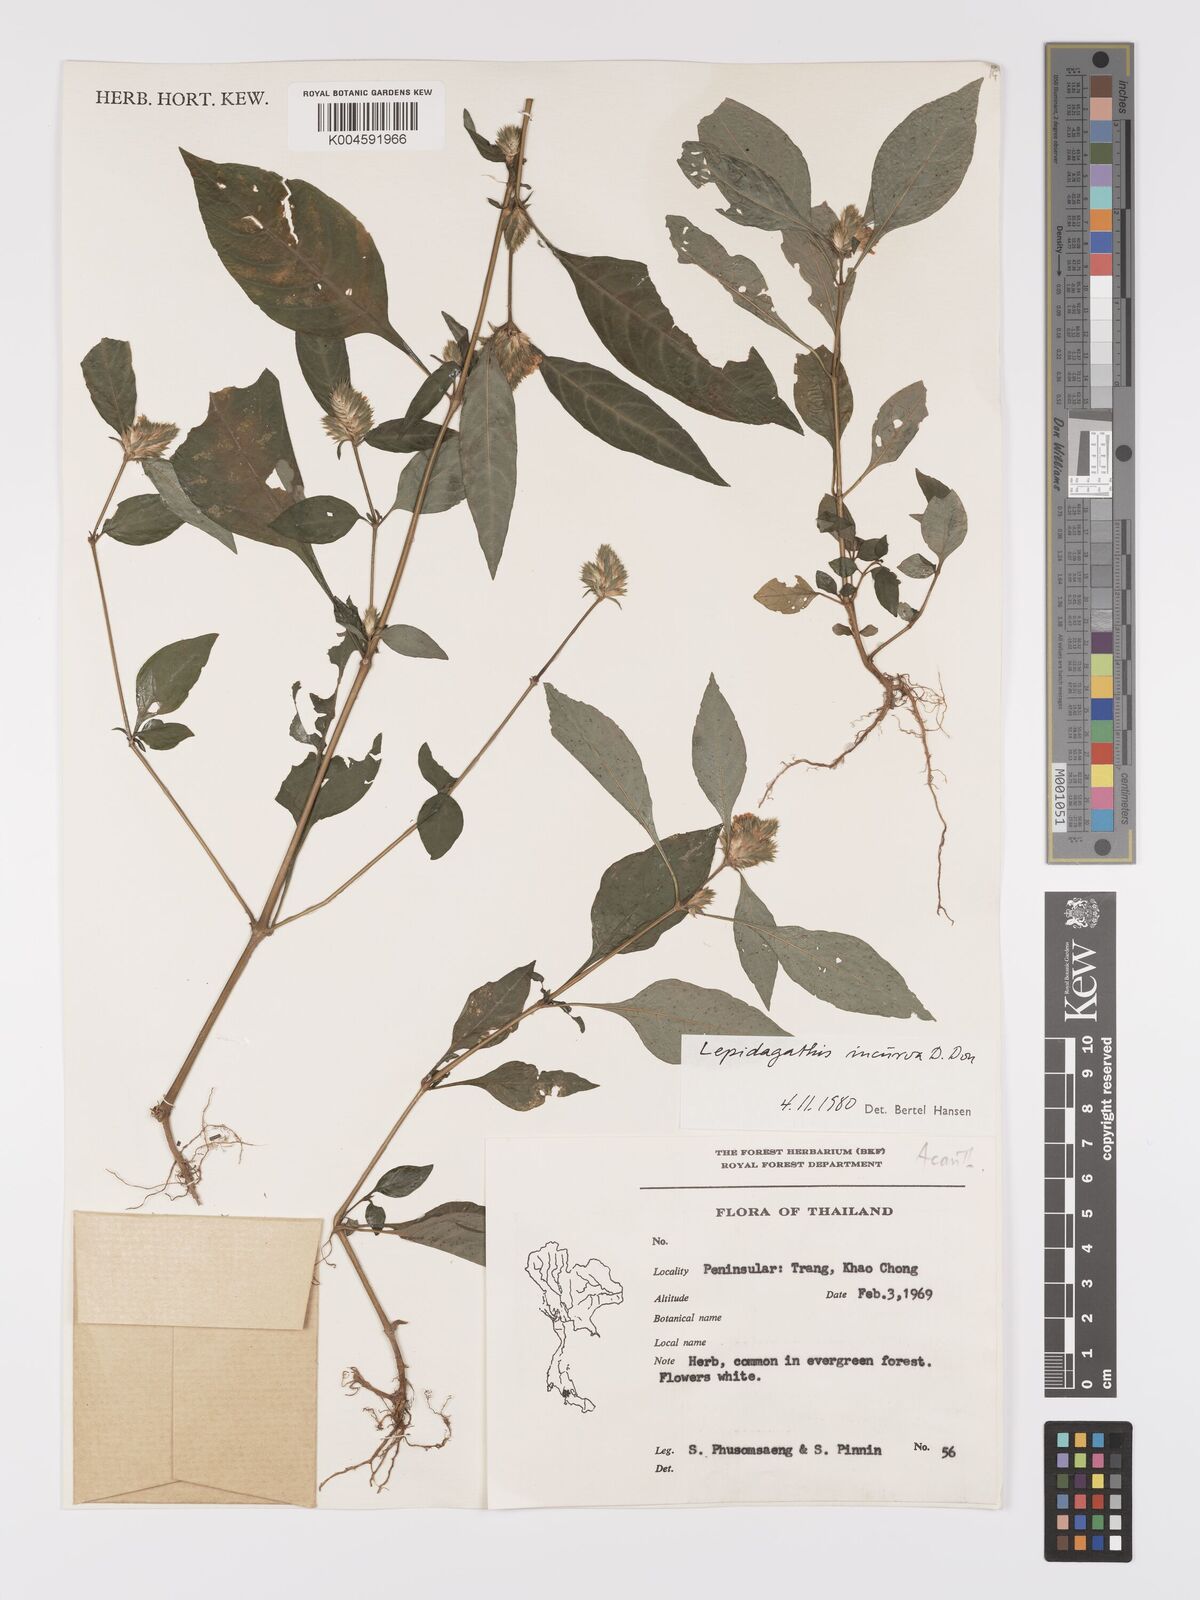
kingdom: Plantae
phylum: Tracheophyta
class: Magnoliopsida
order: Lamiales
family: Acanthaceae
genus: Lepidagathis
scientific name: Lepidagathis incurva
